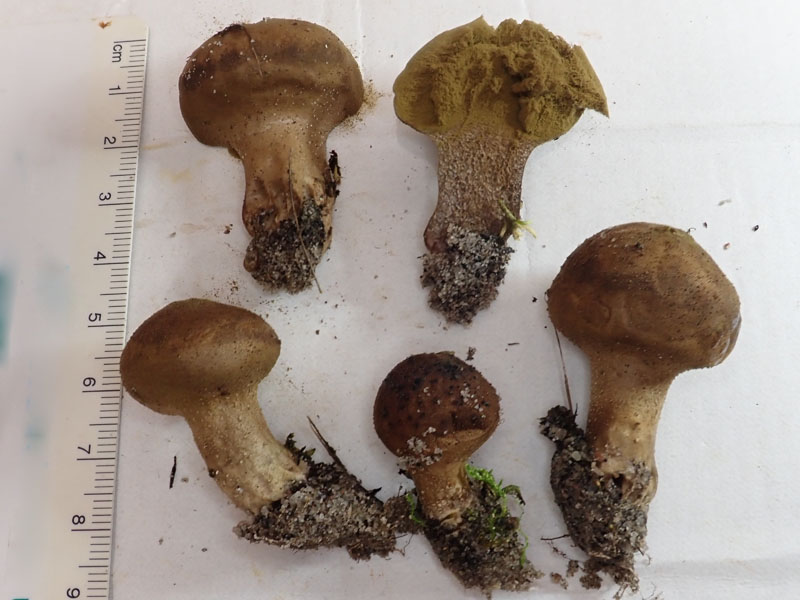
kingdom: Fungi
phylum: Basidiomycota
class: Agaricomycetes
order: Agaricales
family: Lycoperdaceae
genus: Lycoperdon
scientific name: Lycoperdon lividum
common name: mark-støvbold
